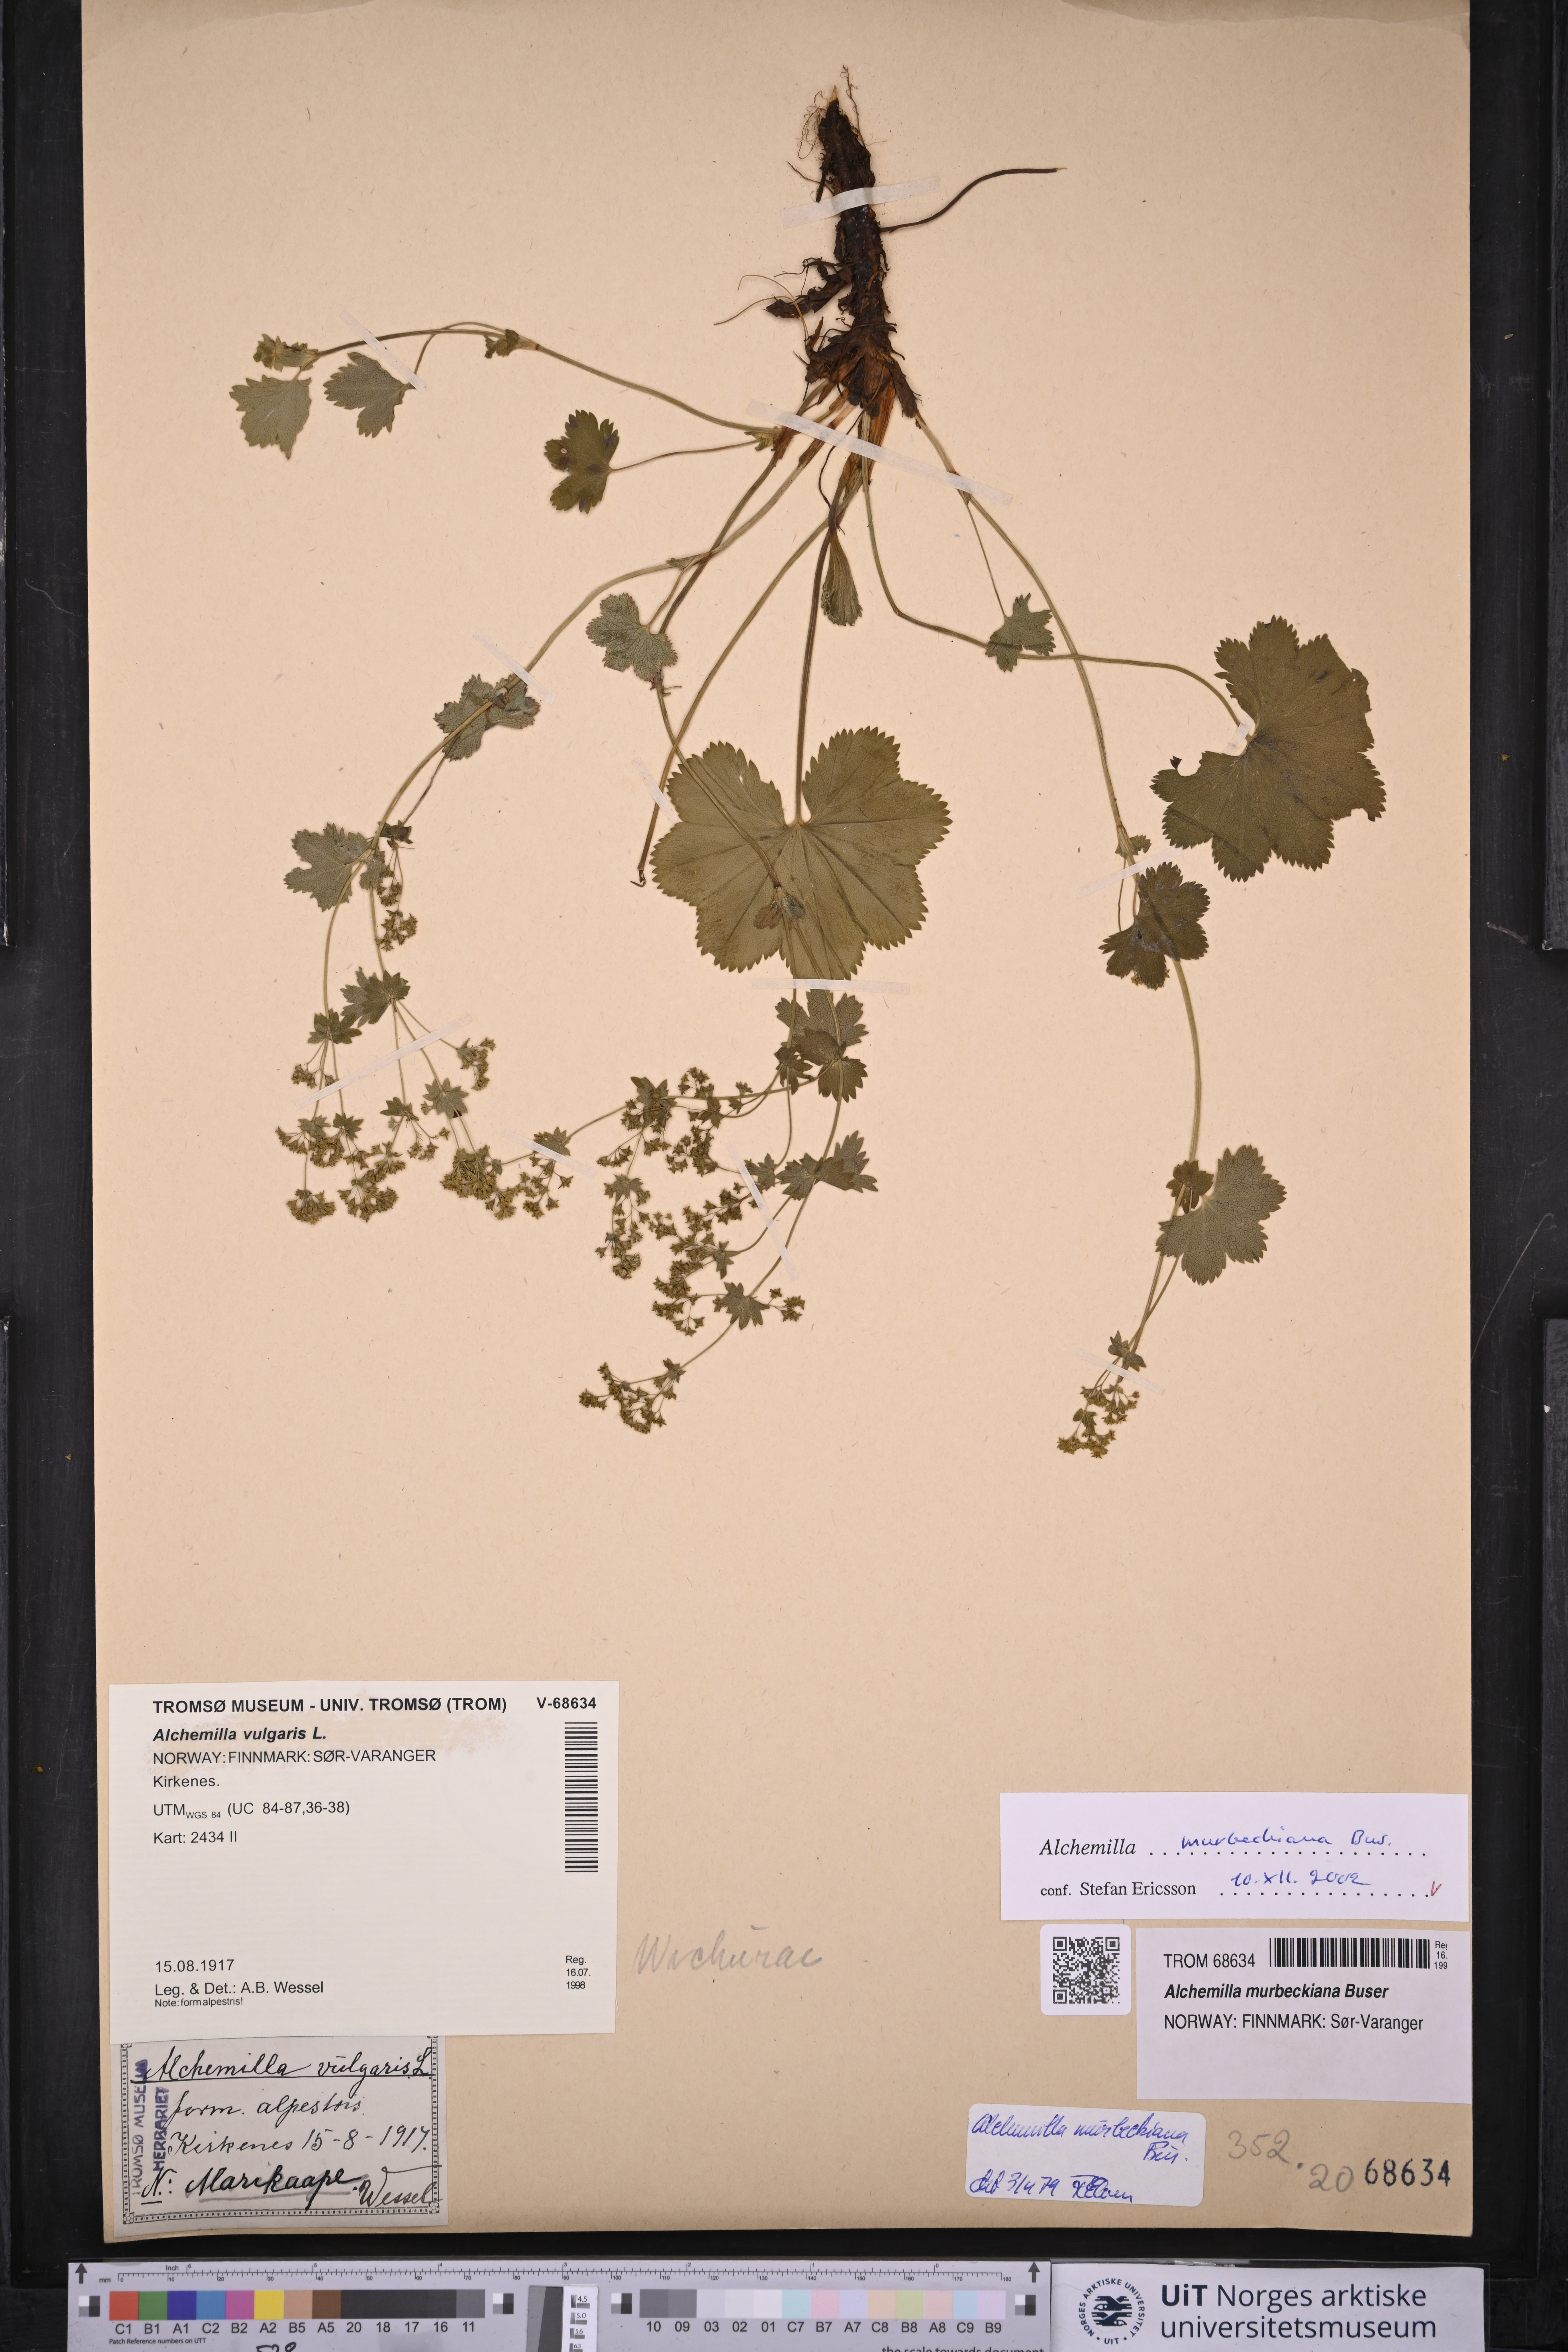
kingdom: Plantae
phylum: Tracheophyta
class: Magnoliopsida
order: Rosales
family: Rosaceae
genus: Alchemilla
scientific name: Alchemilla murbeckiana
